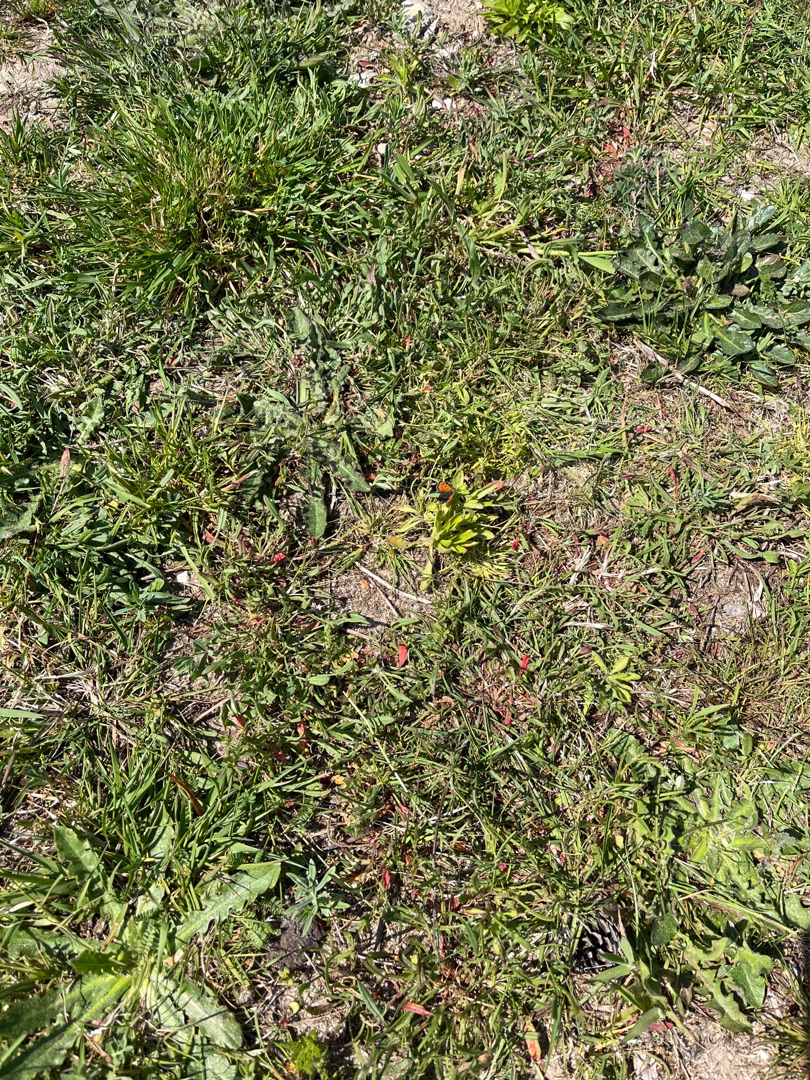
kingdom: Animalia
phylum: Arthropoda
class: Insecta
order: Lepidoptera
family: Lycaenidae
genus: Lycaena
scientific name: Lycaena phlaeas
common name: Lille ildfugl
